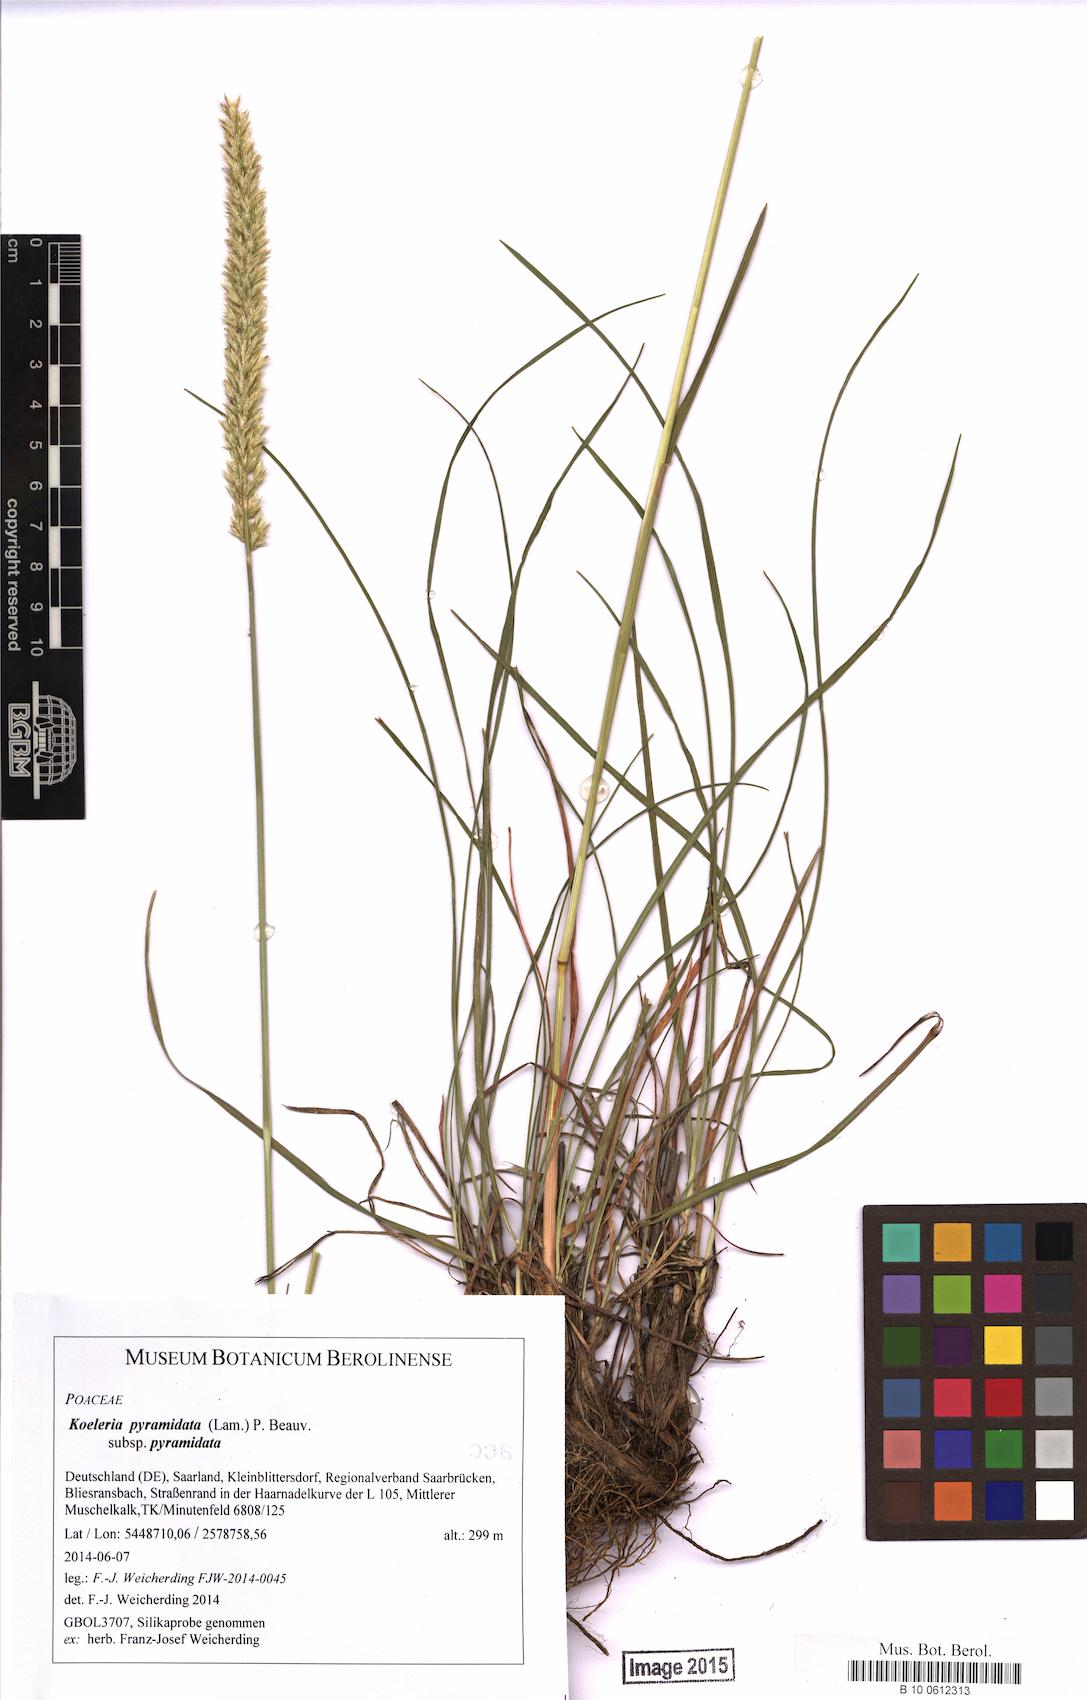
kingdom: Plantae
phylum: Tracheophyta
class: Liliopsida
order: Poales
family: Poaceae
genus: Koeleria
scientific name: Koeleria pyramidata
